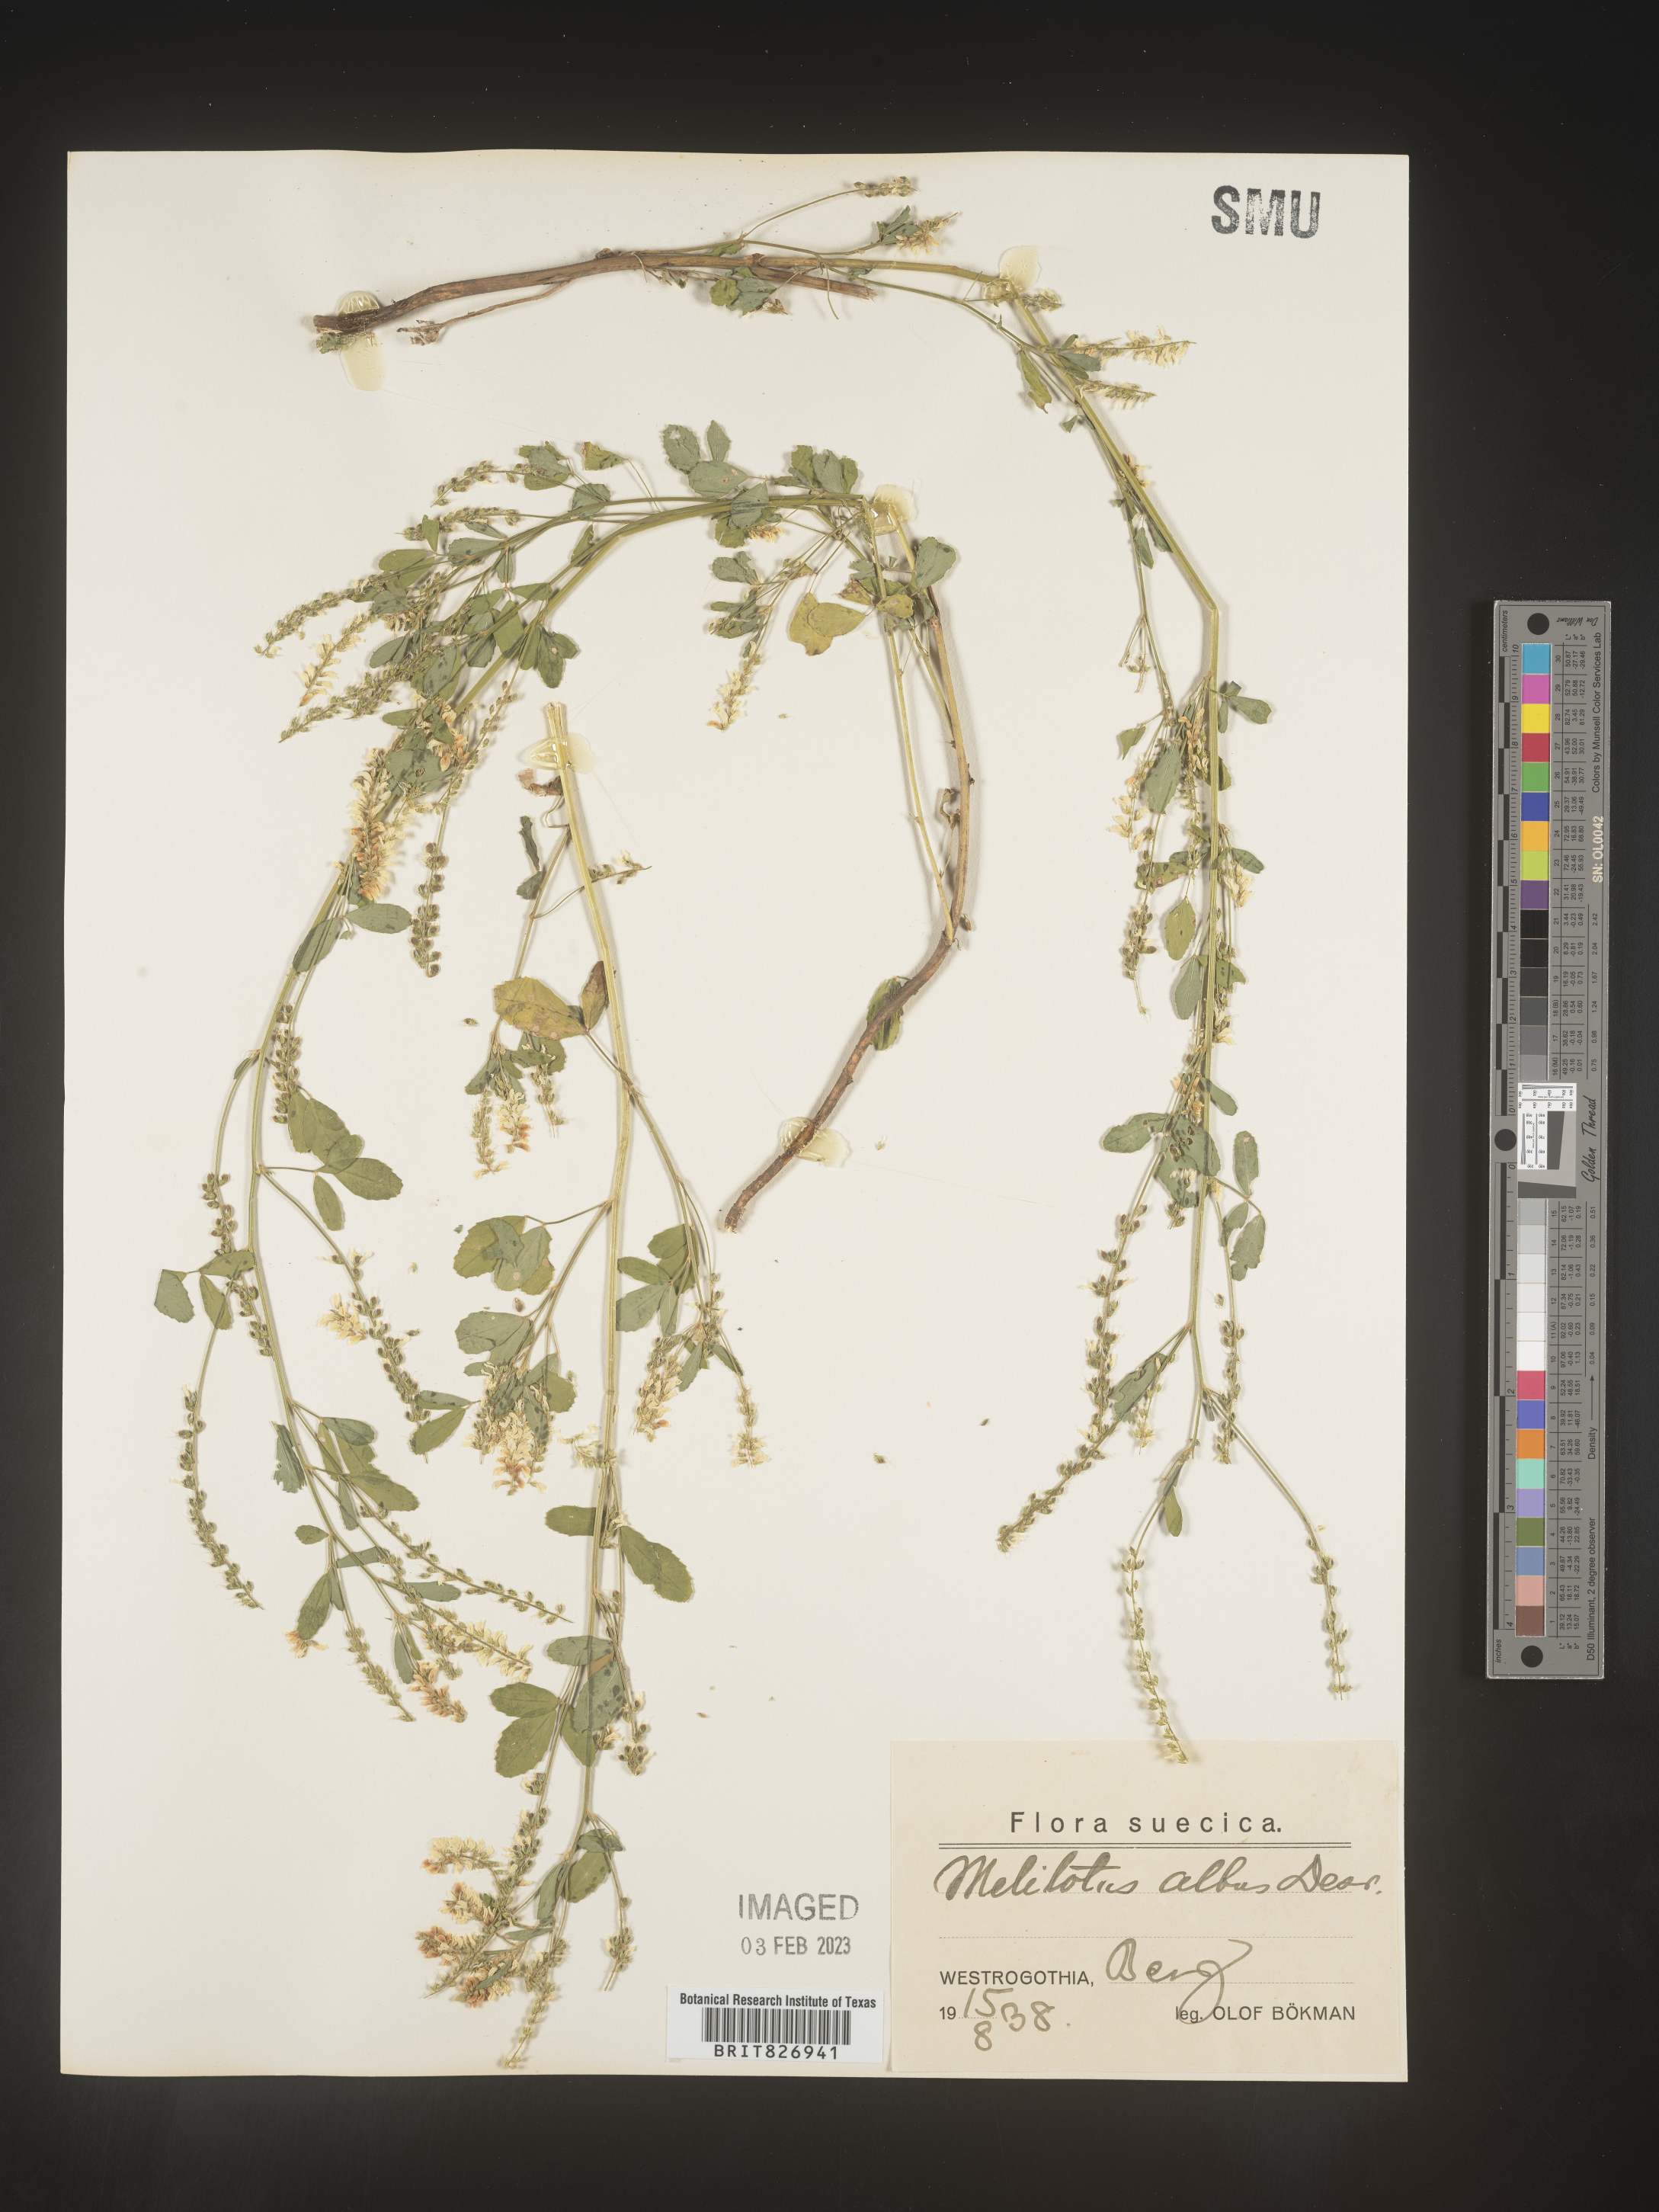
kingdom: Plantae
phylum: Tracheophyta
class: Magnoliopsida
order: Fabales
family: Fabaceae
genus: Melilotus
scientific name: Melilotus
